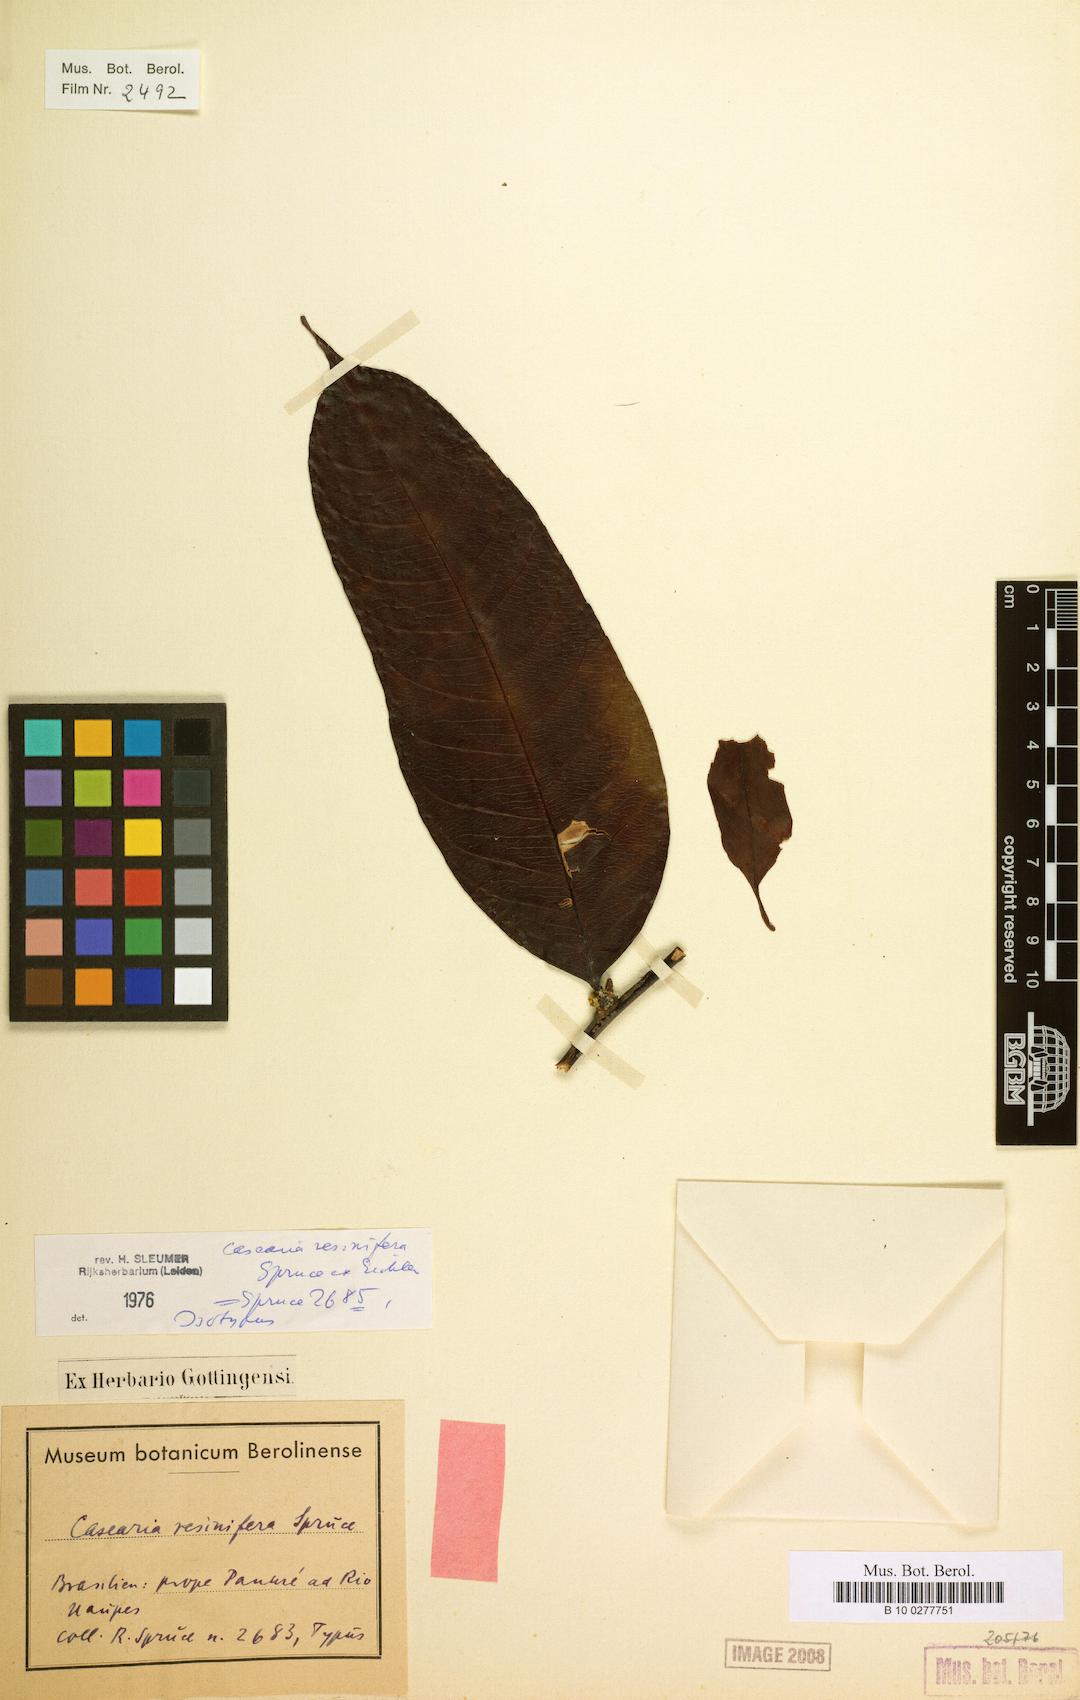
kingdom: Plantae
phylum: Tracheophyta
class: Magnoliopsida
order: Malpighiales
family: Salicaceae
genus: Casearia
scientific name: Casearia resinifera
